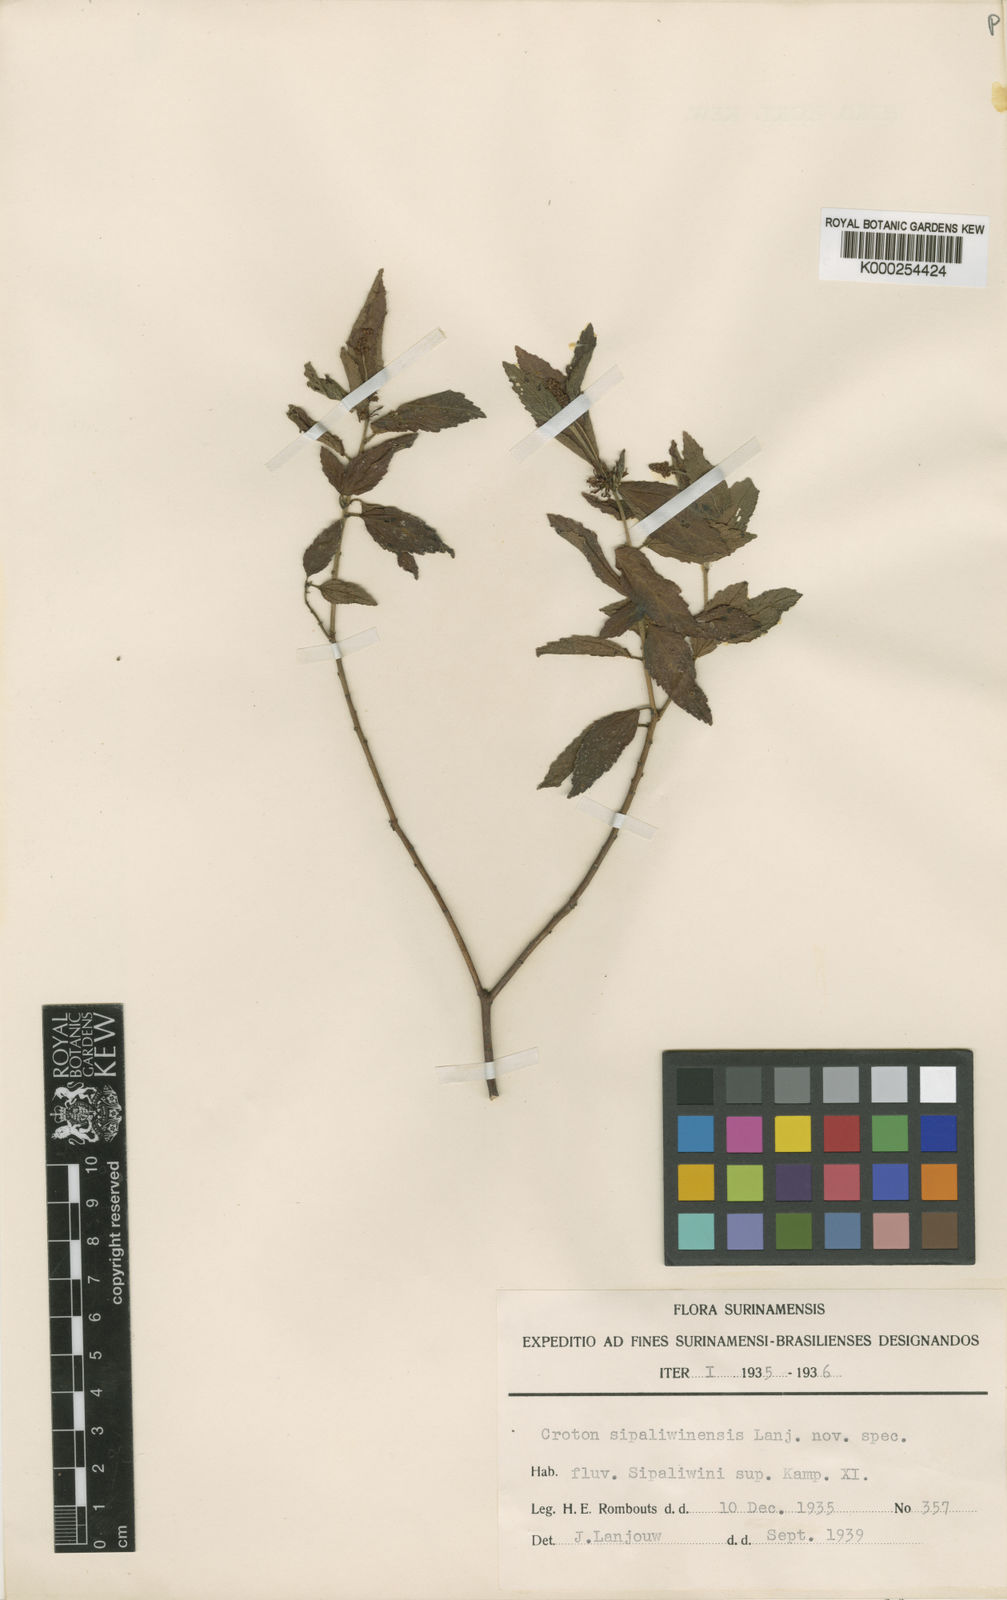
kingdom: Plantae
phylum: Tracheophyta
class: Magnoliopsida
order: Malpighiales
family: Euphorbiaceae
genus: Croton
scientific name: Croton sipaliwinensis
